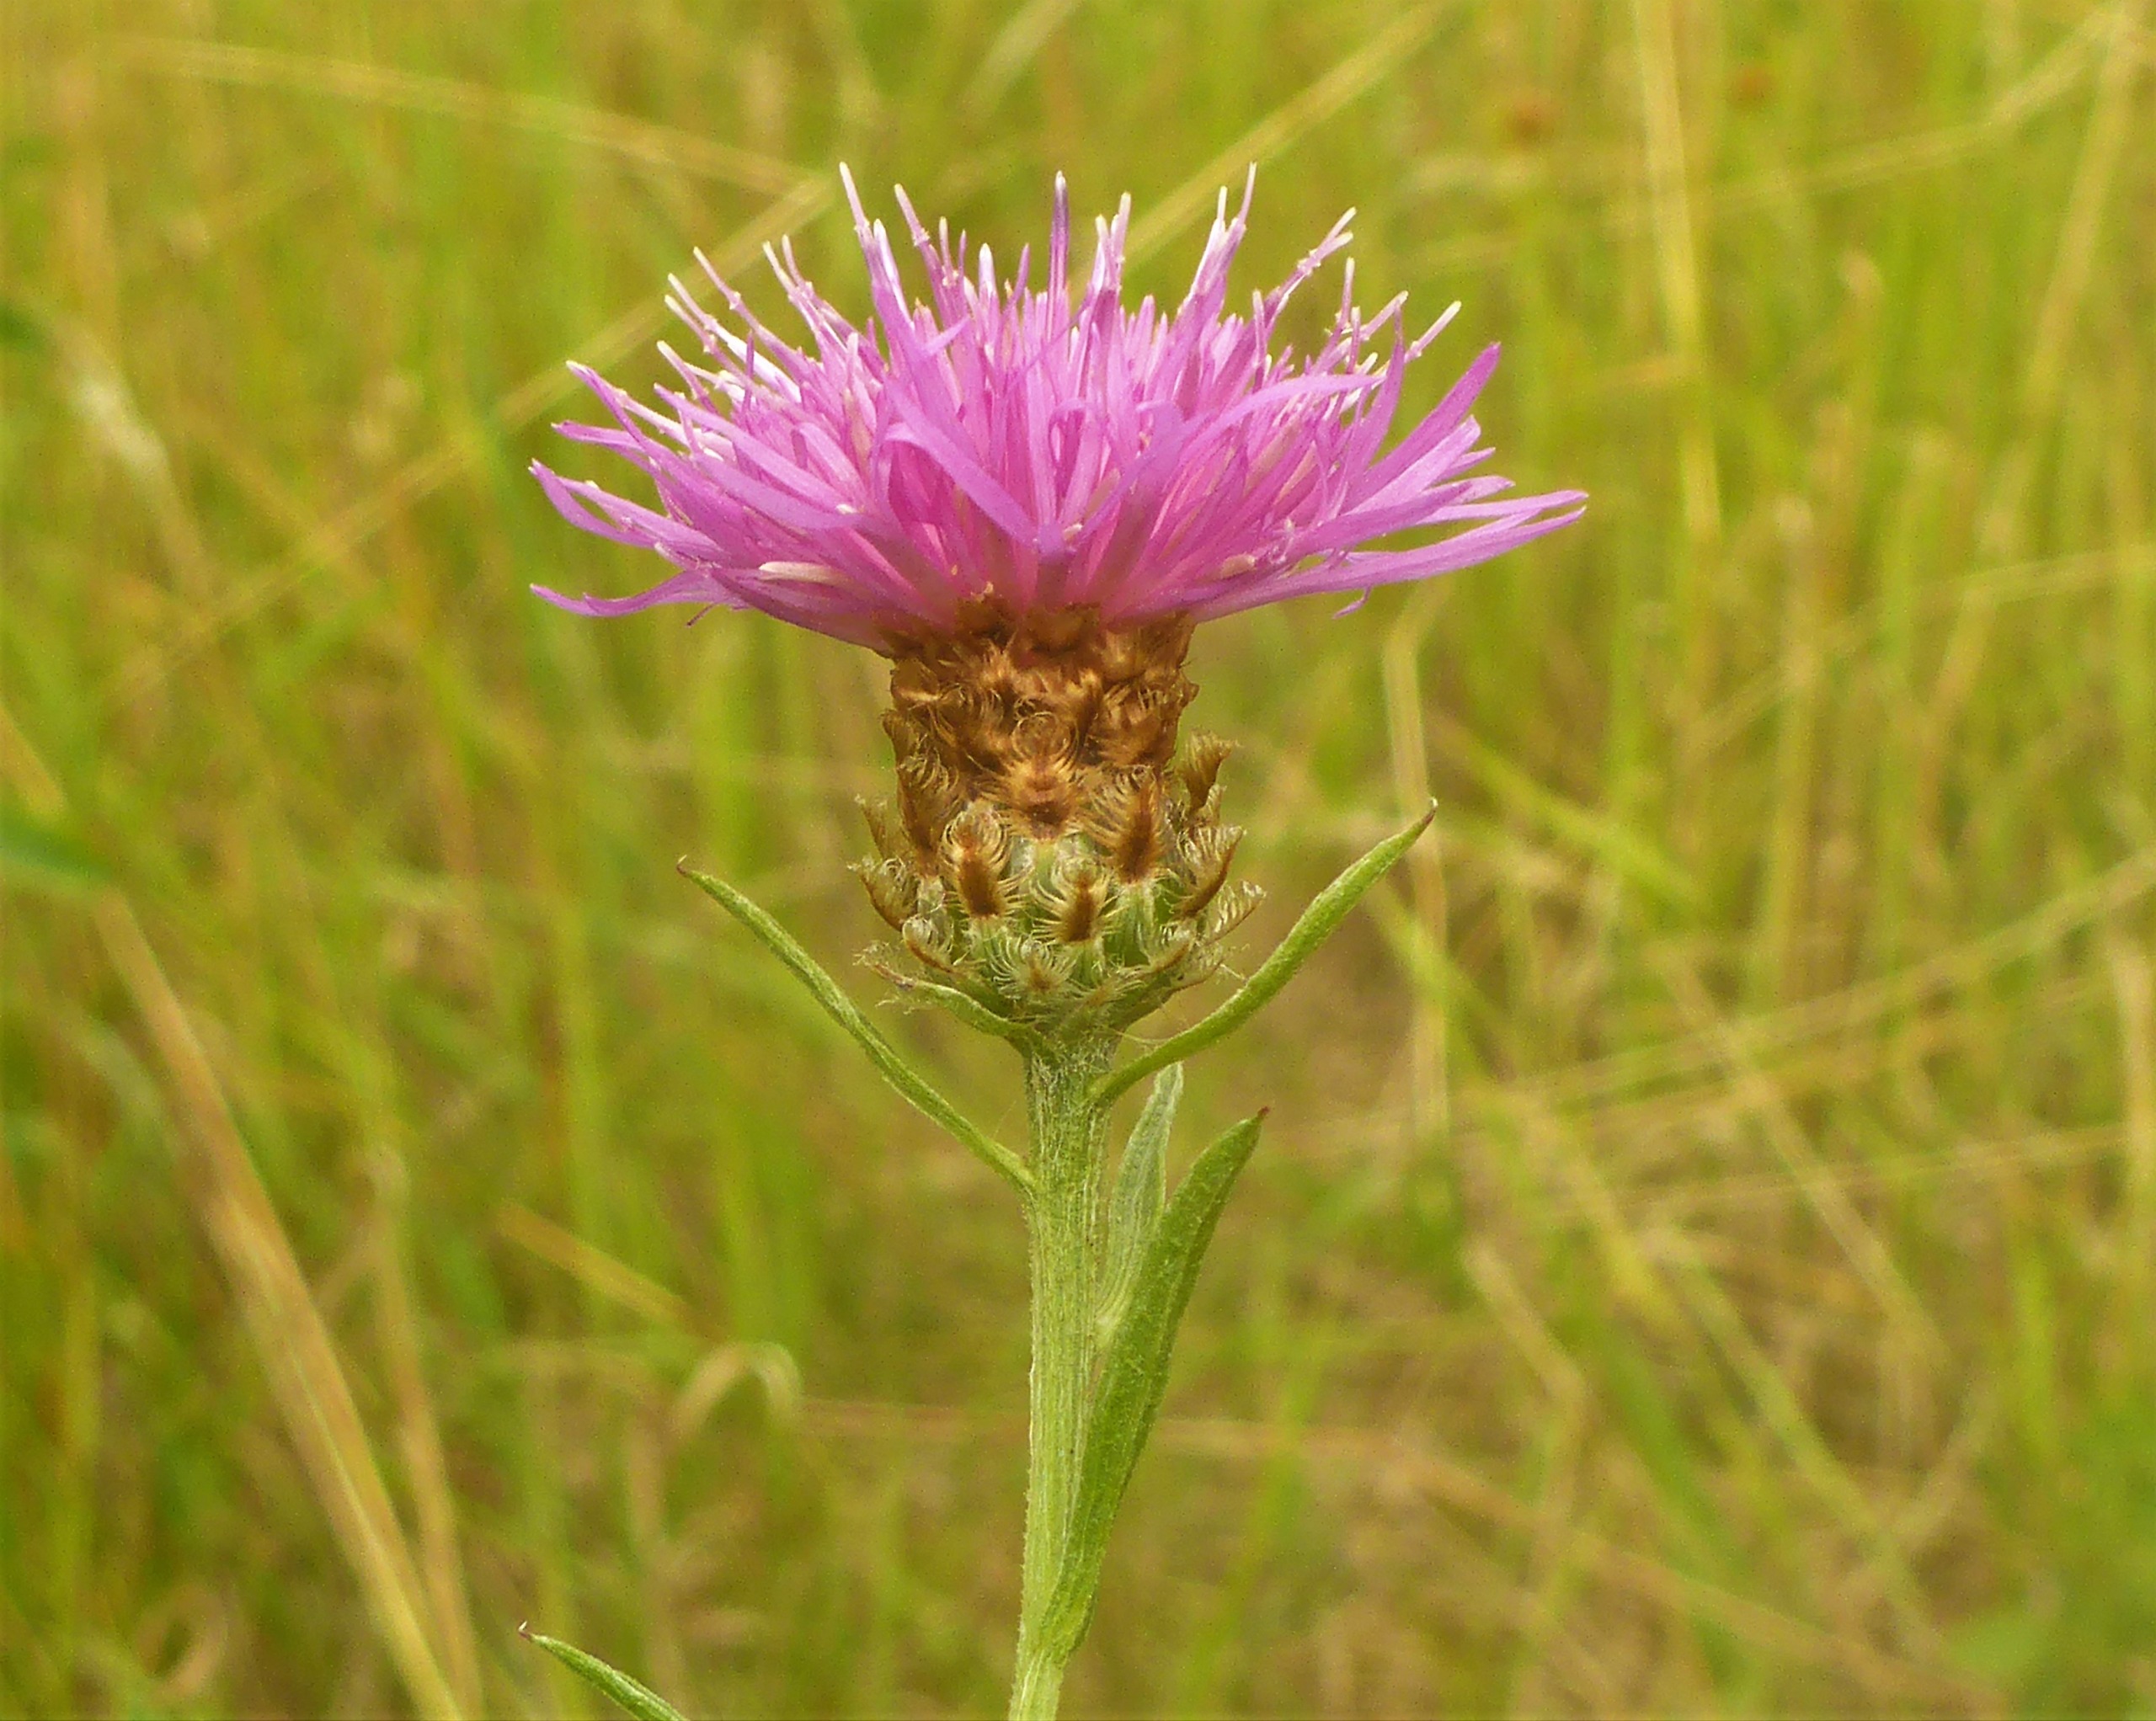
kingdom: Plantae
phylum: Tracheophyta
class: Magnoliopsida
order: Asterales
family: Asteraceae
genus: Centaurea
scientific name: Centaurea moncktonii
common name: Hybrid-knopurt
